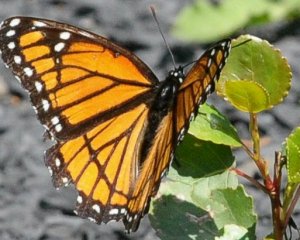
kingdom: Animalia
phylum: Arthropoda
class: Insecta
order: Lepidoptera
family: Nymphalidae
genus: Limenitis
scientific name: Limenitis archippus
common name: Viceroy
